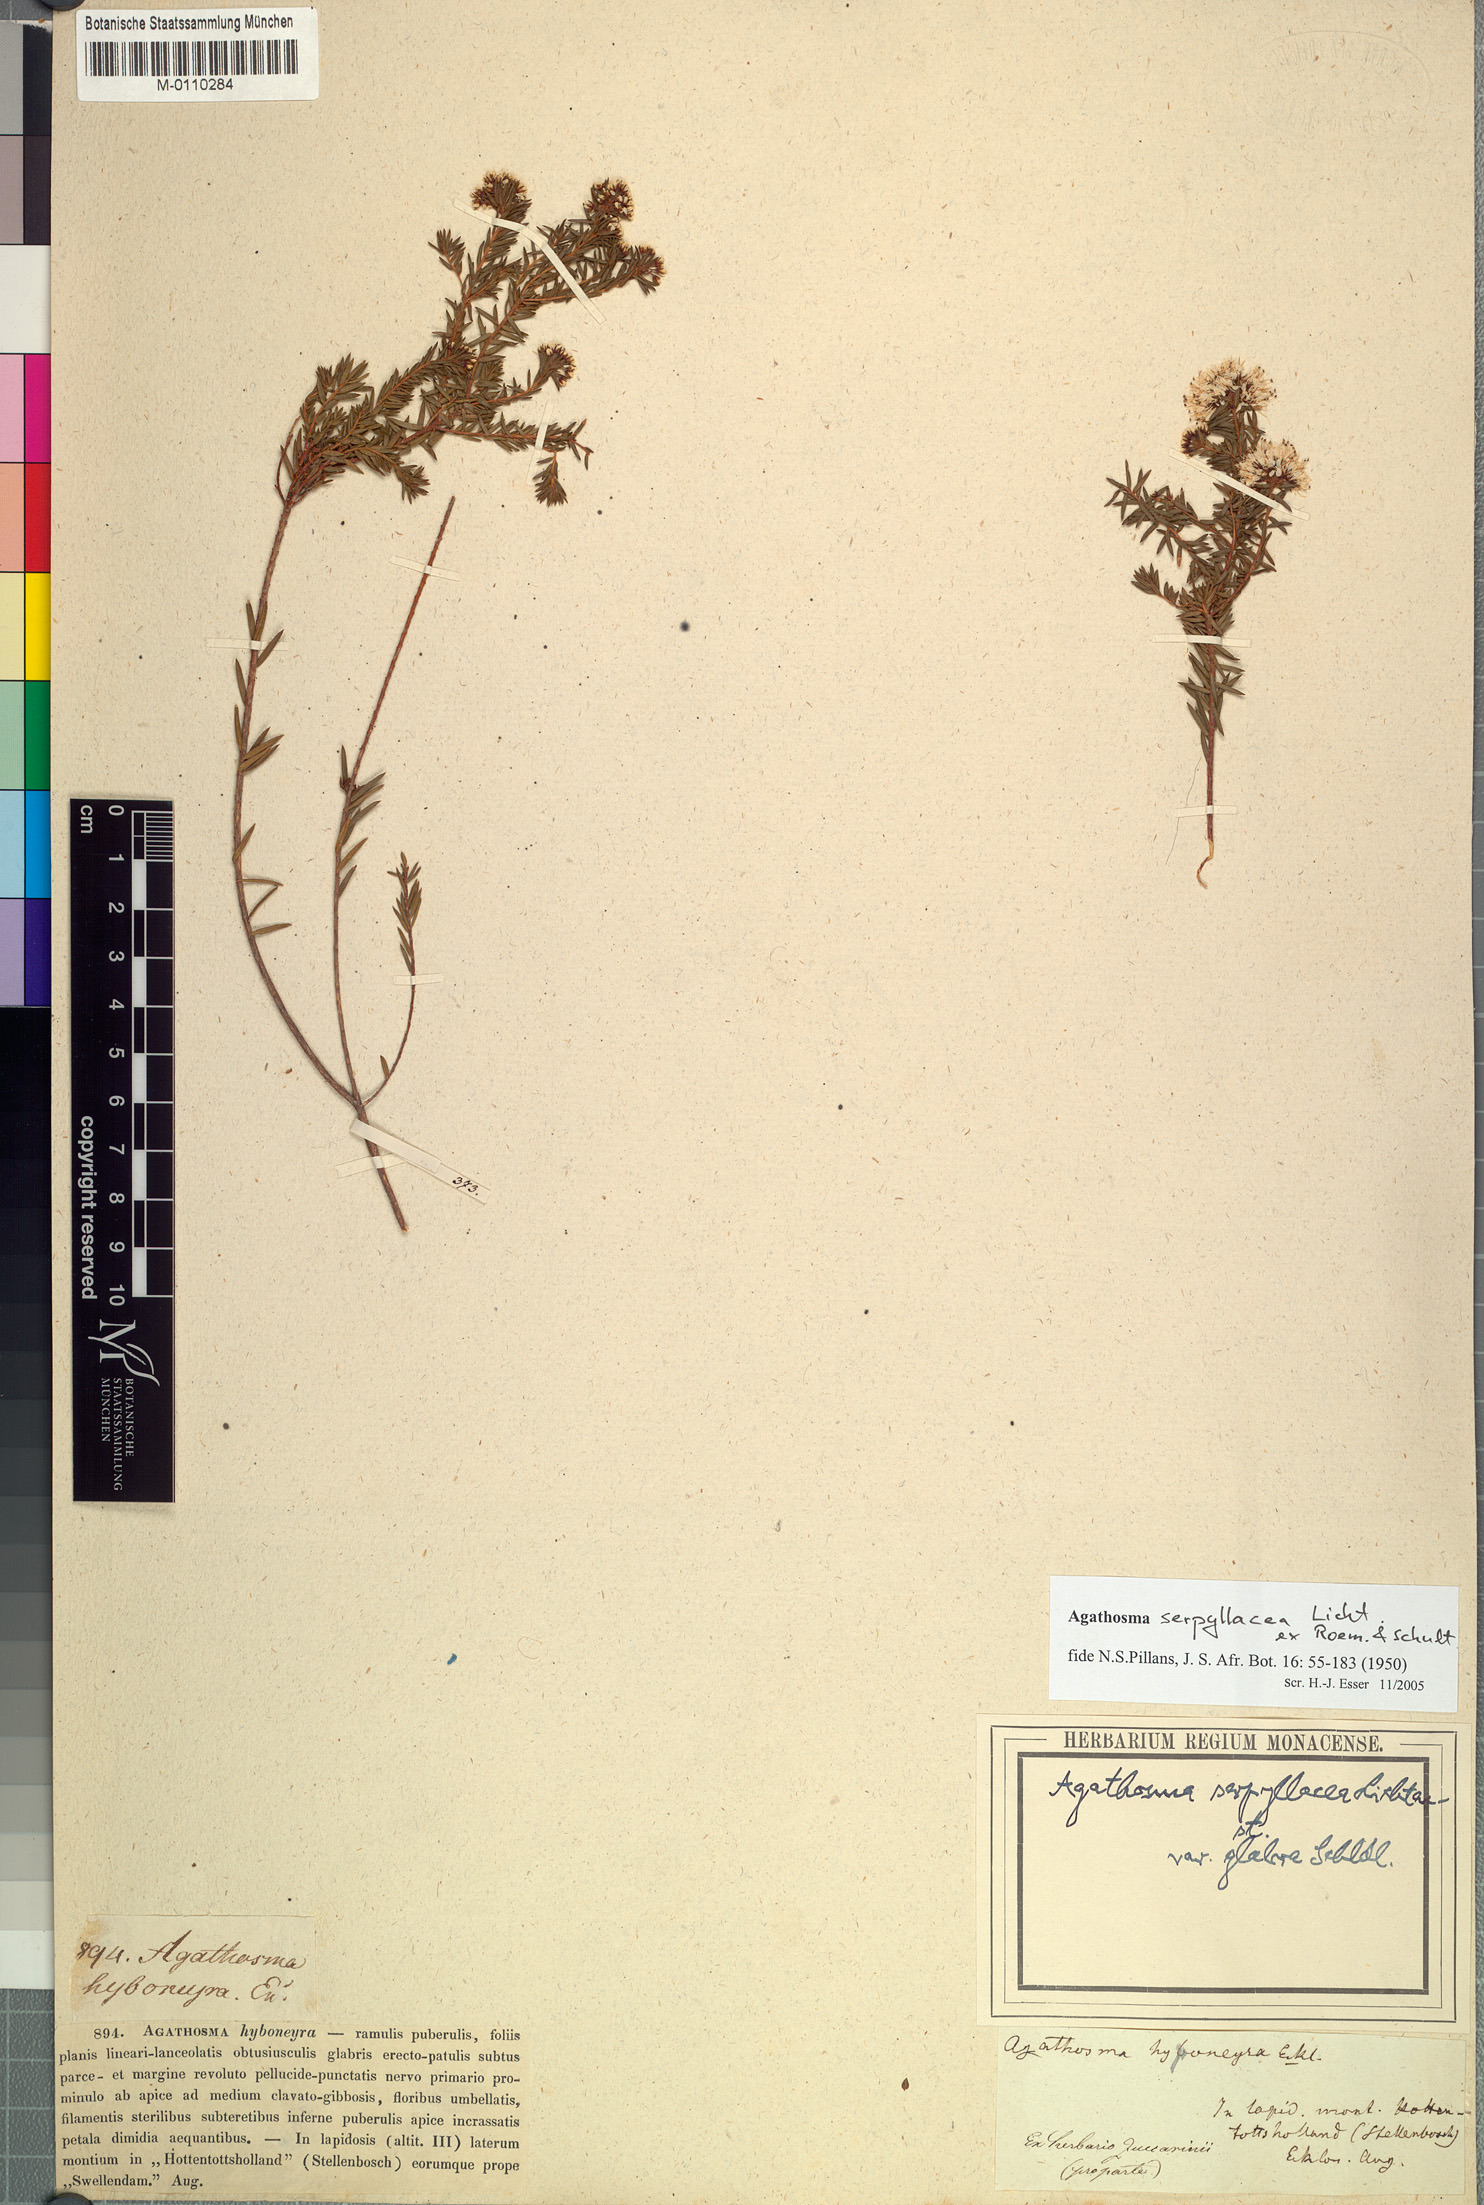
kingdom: Plantae
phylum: Tracheophyta
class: Magnoliopsida
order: Sapindales
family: Rutaceae
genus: Agathosma
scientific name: Agathosma serpyllacea
